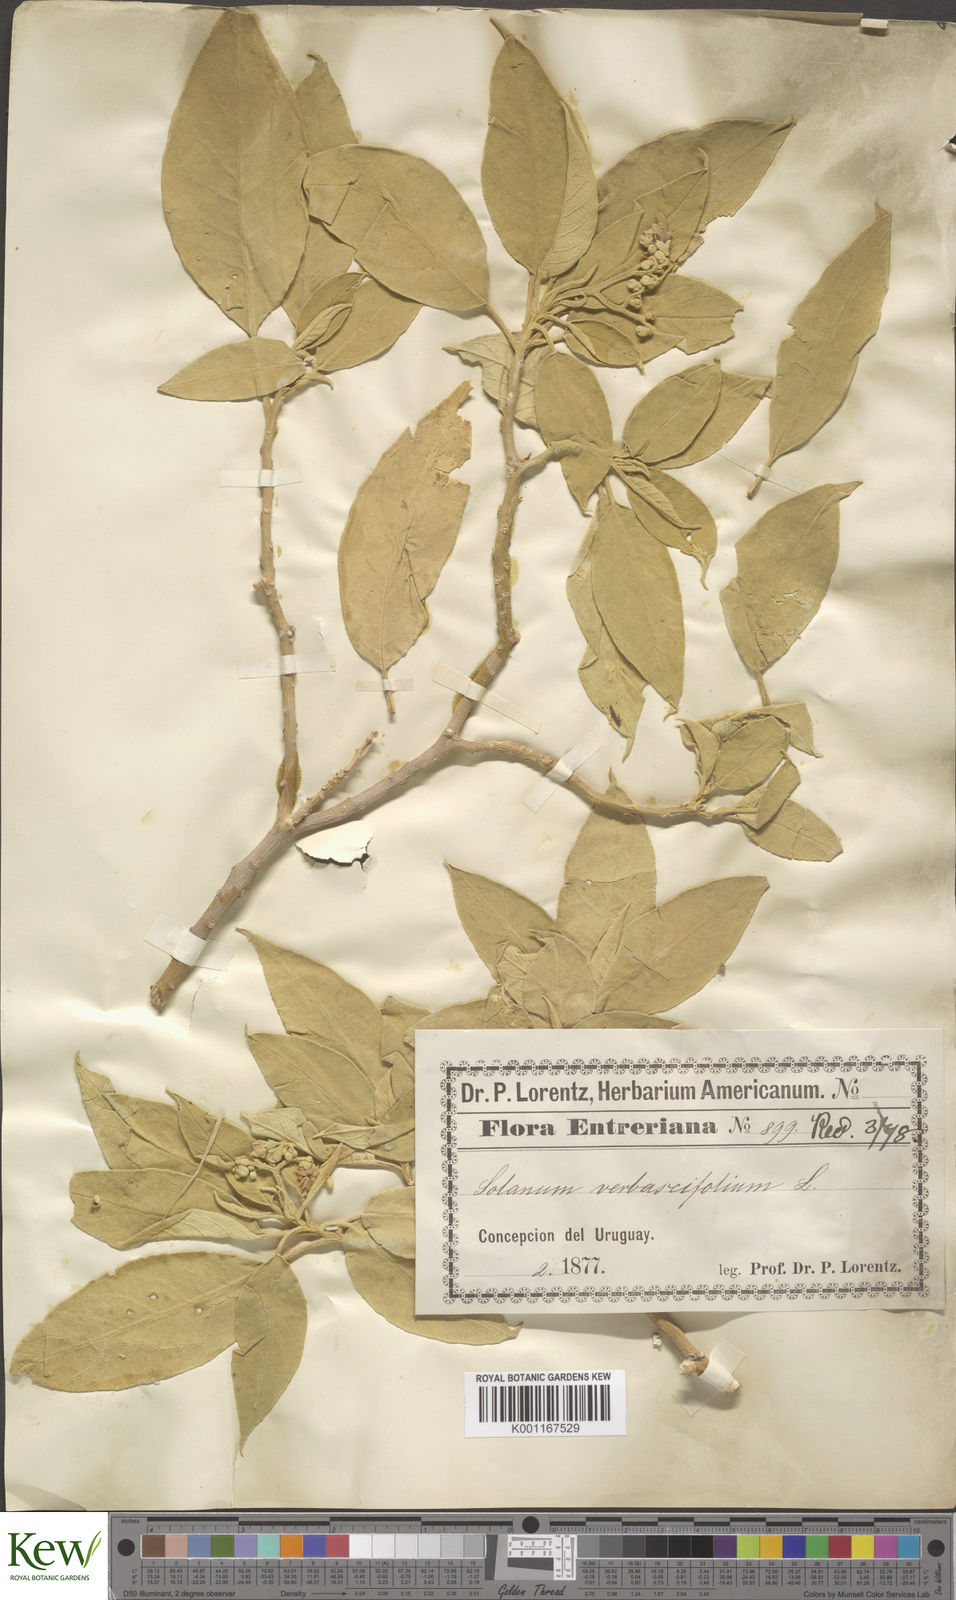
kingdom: Plantae
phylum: Tracheophyta
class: Magnoliopsida
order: Solanales
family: Solanaceae
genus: Solanum
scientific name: Solanum erianthum
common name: Tobacco-tree
